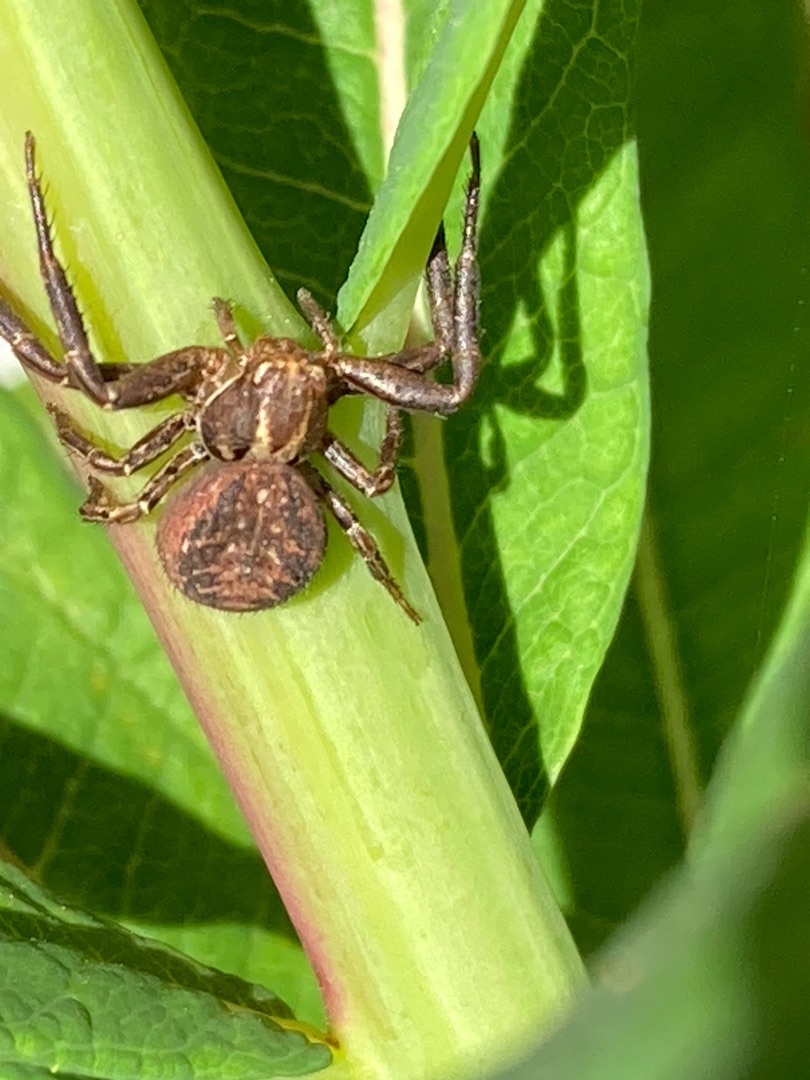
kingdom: Animalia
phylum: Arthropoda
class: Arachnida
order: Araneae
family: Thomisidae
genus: Xysticus
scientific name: Xysticus
